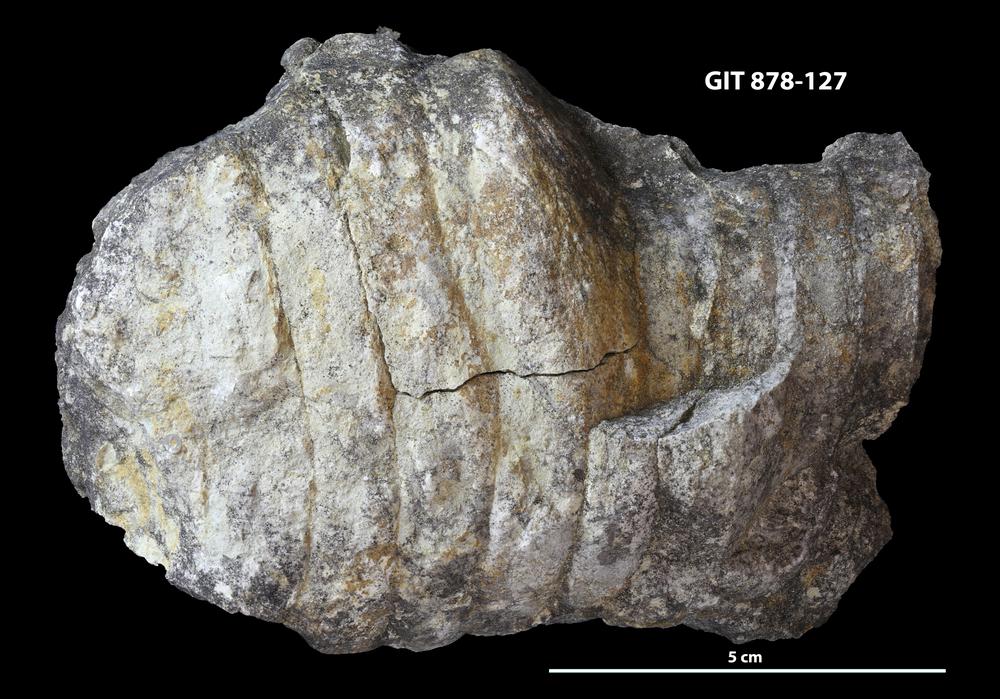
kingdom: Animalia
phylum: Mollusca
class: Cephalopoda
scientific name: Cephalopoda
